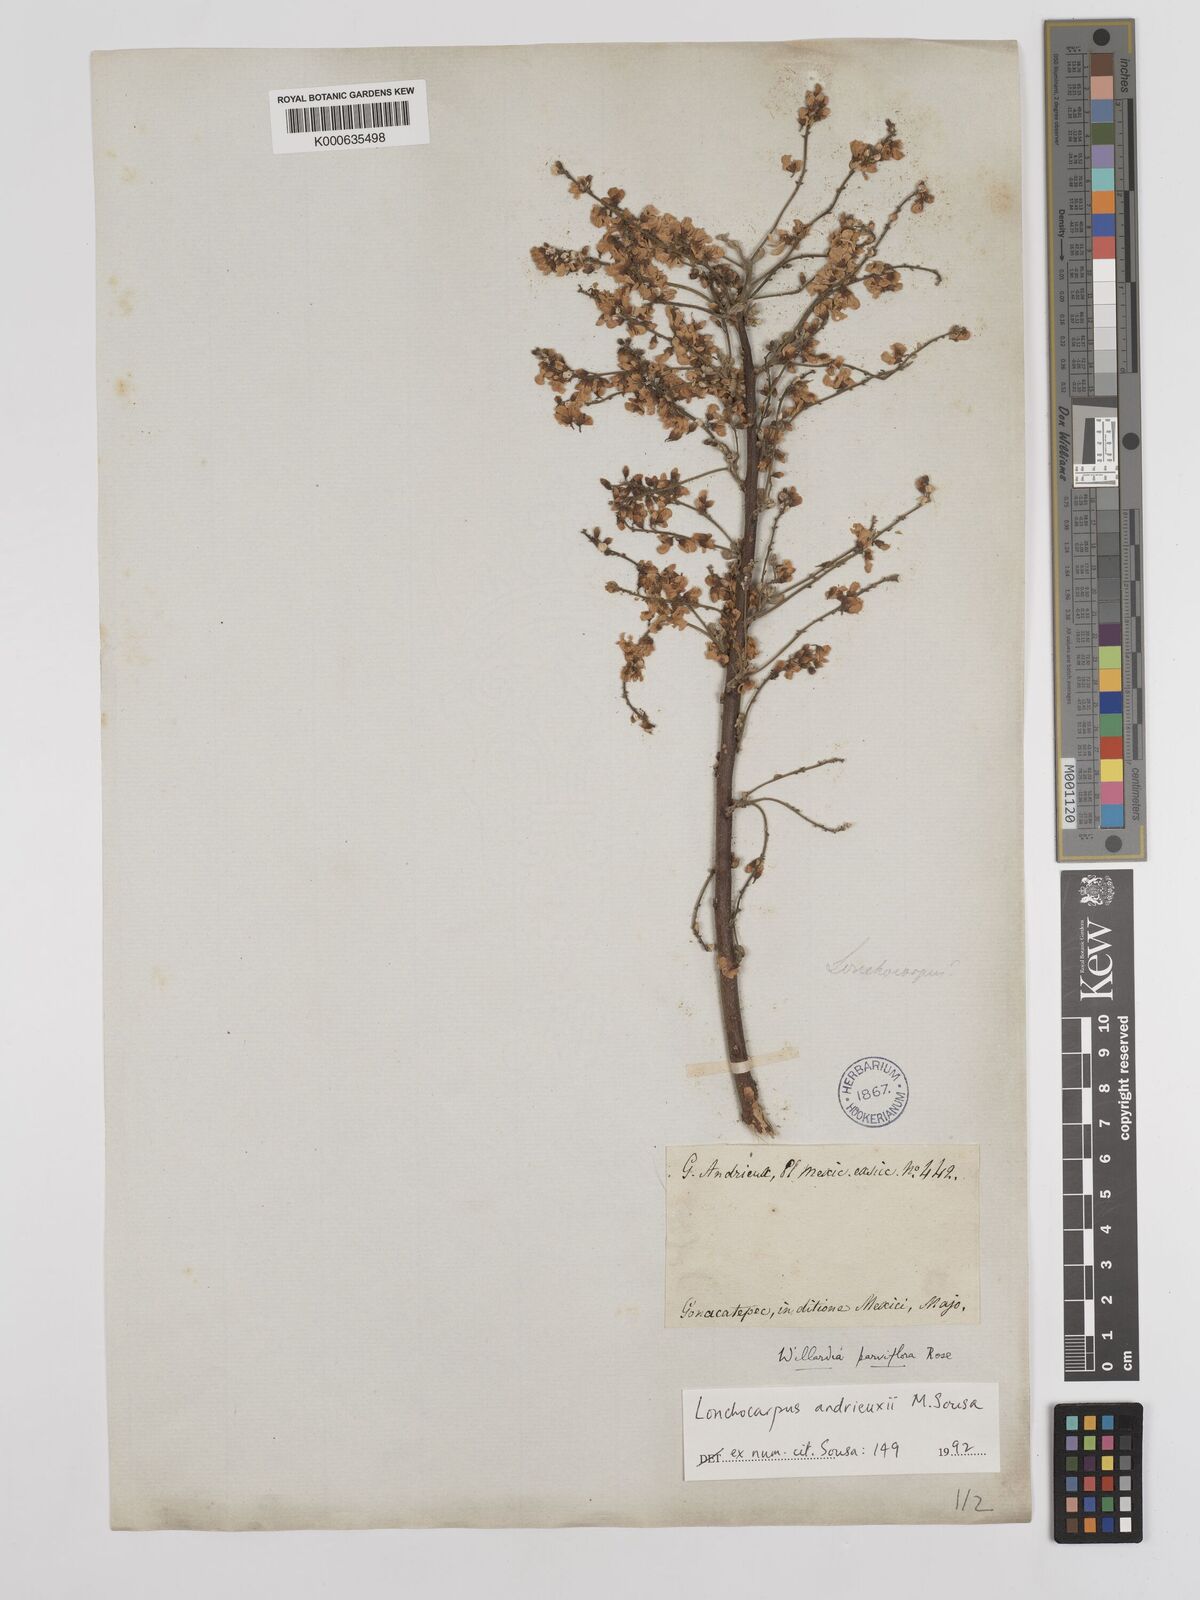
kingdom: Plantae
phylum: Tracheophyta
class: Magnoliopsida
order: Fabales
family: Fabaceae
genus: Lonchocarpus
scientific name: Lonchocarpus andrieuxii
